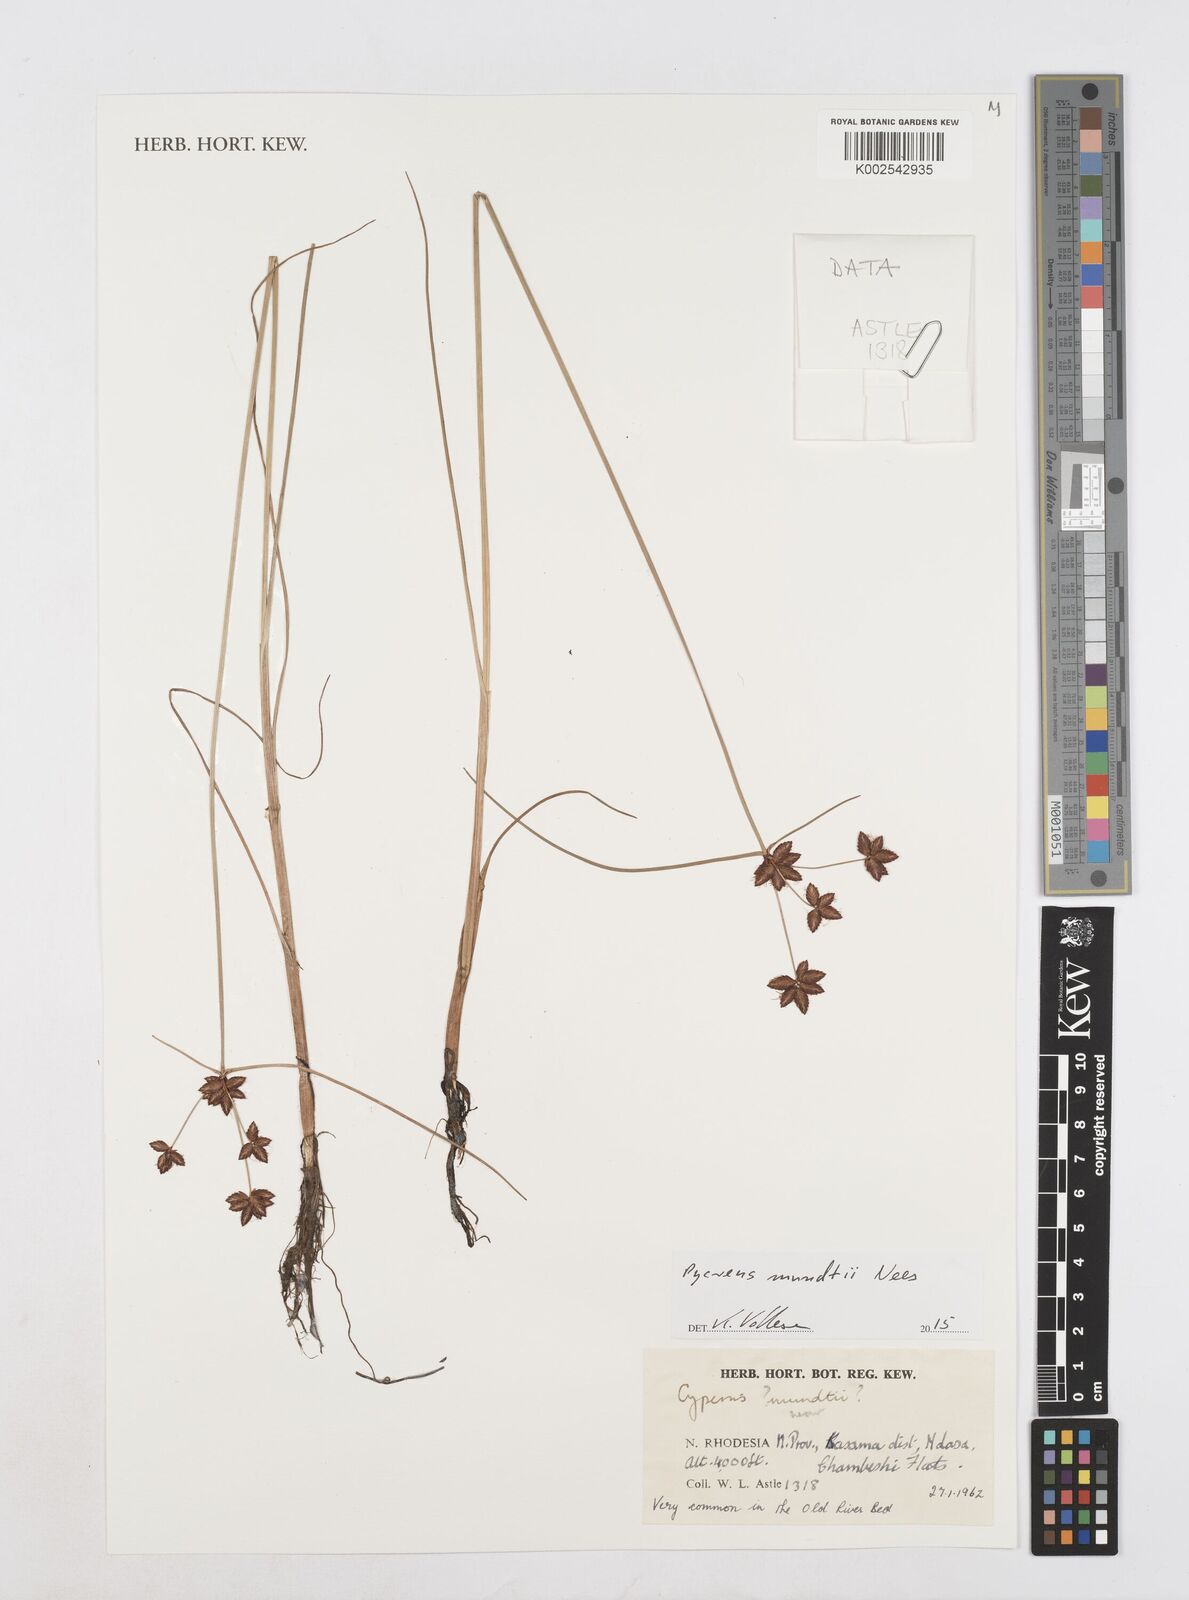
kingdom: Plantae
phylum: Tracheophyta
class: Liliopsida
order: Poales
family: Cyperaceae
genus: Cyperus
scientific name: Cyperus mundii
